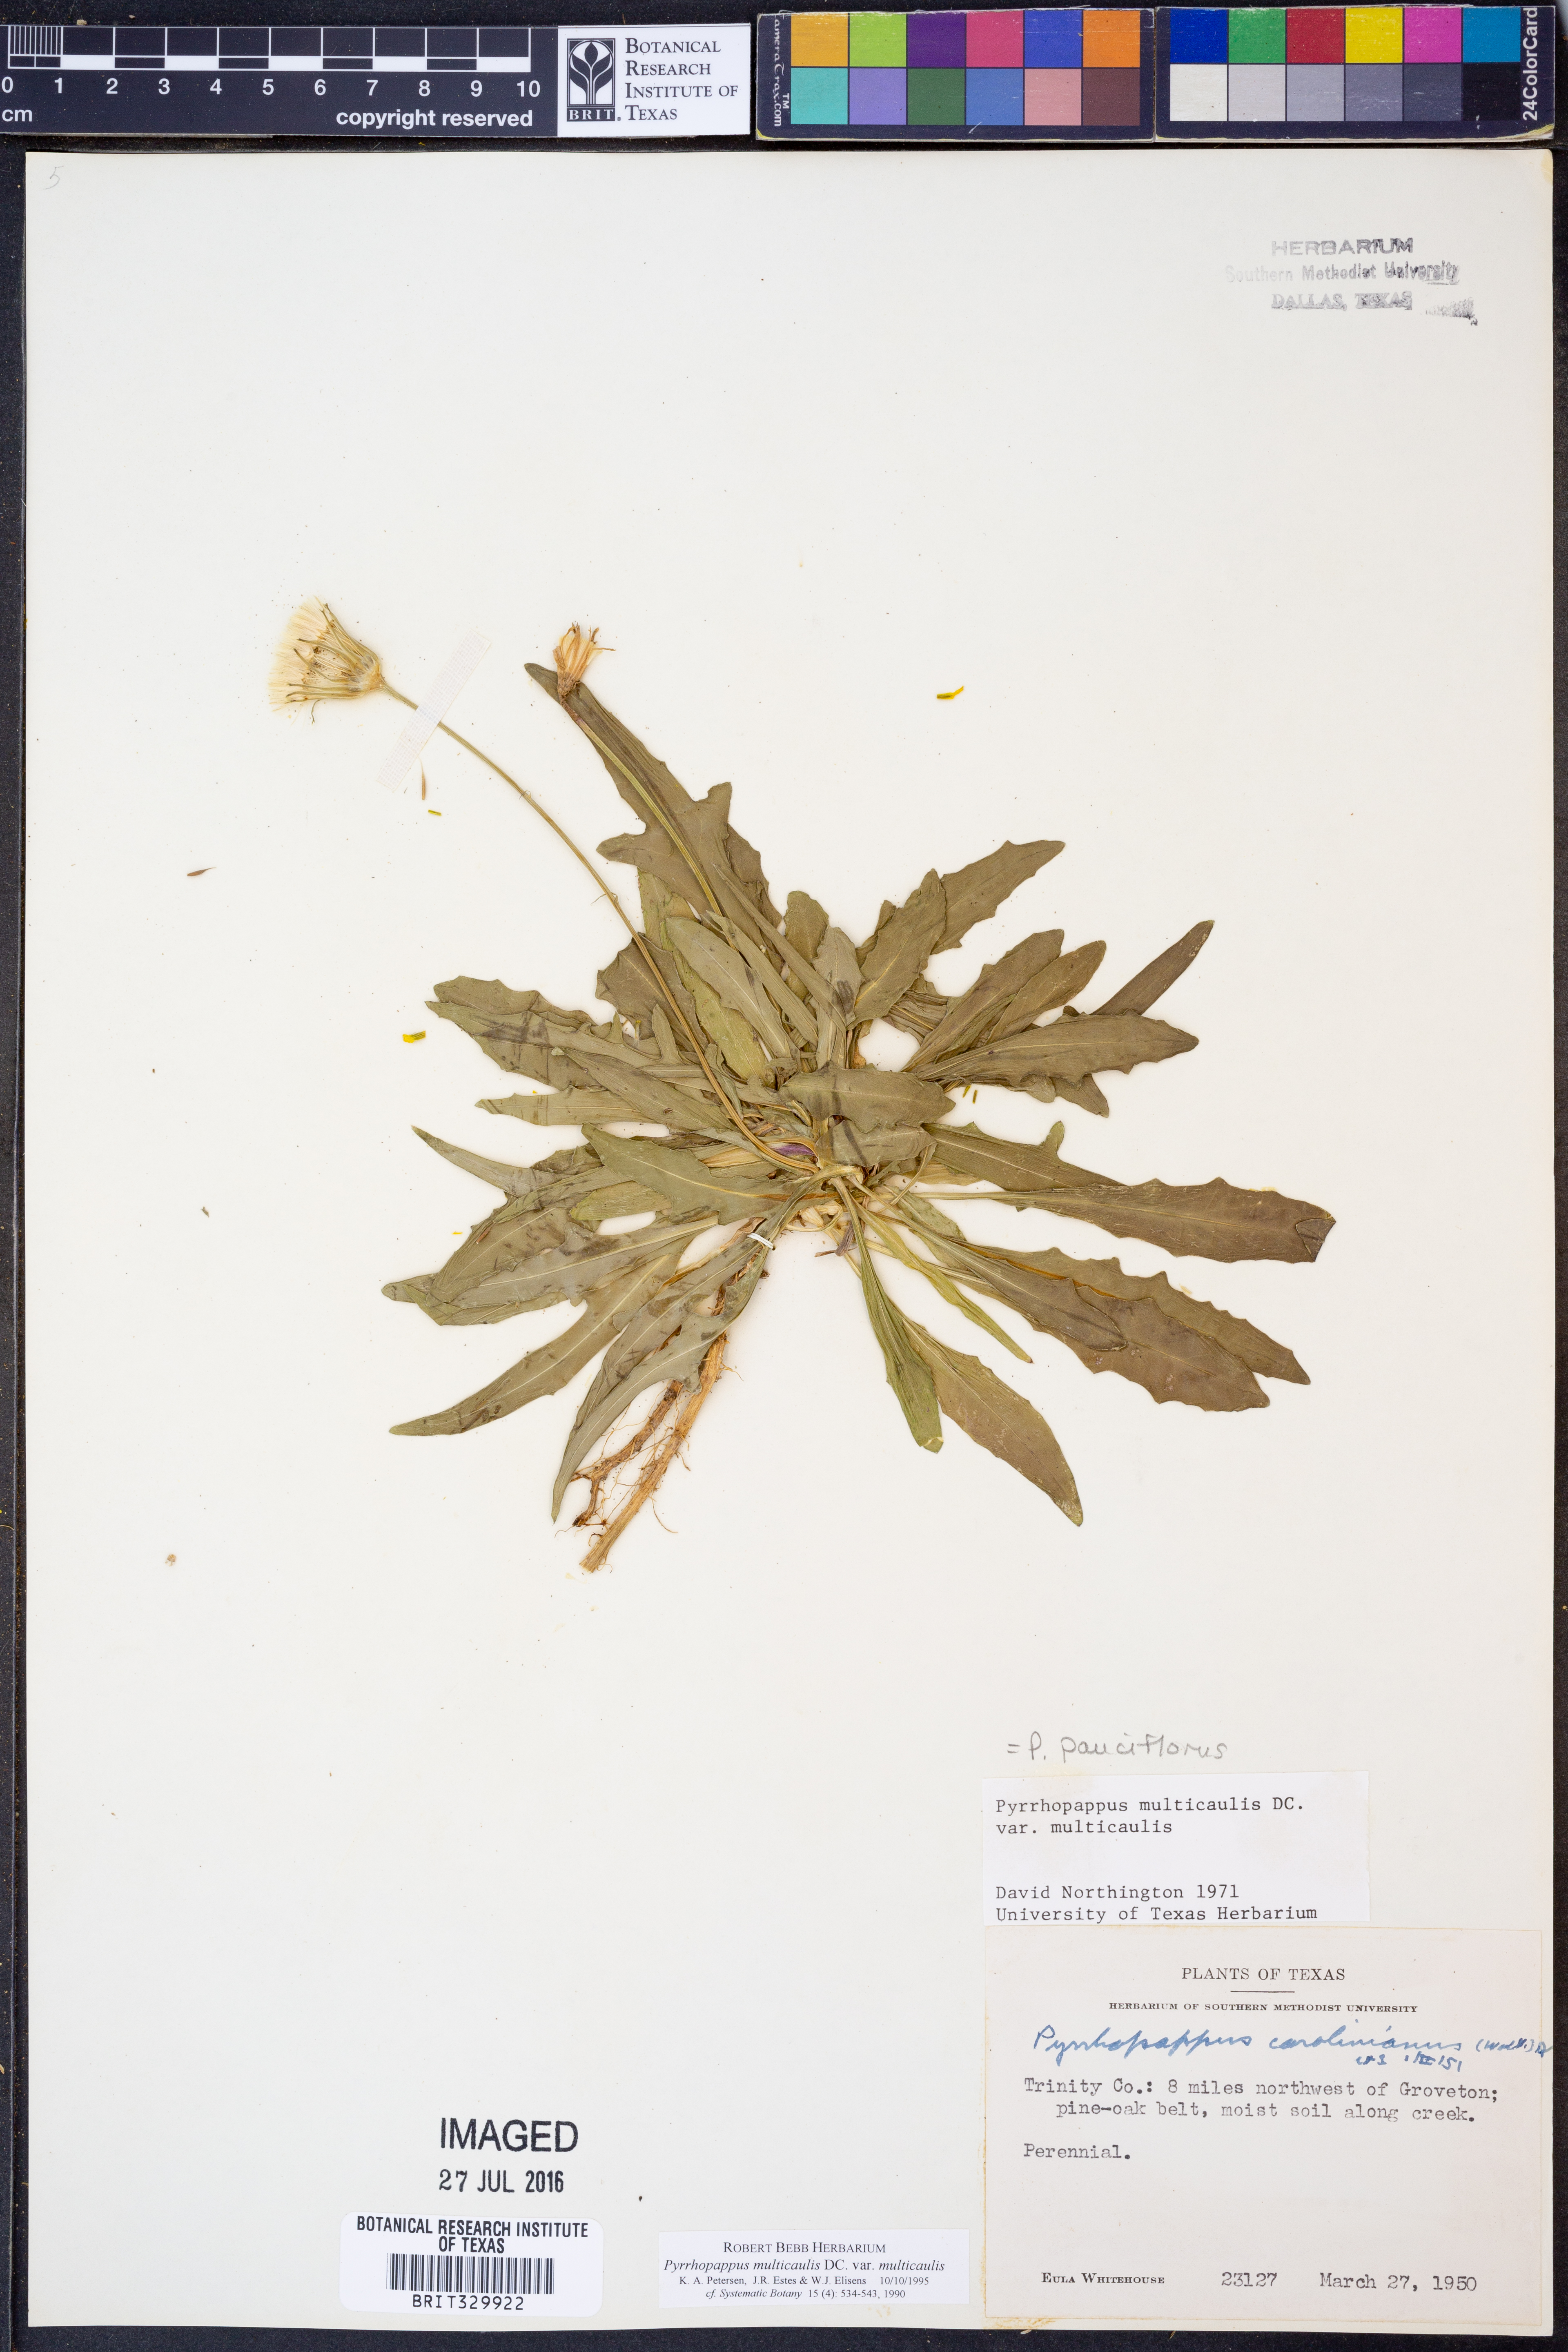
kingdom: Plantae
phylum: Tracheophyta
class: Magnoliopsida
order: Asterales
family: Asteraceae
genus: Pyrrhopappus
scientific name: Pyrrhopappus pauciflorus
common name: Texas false dandelion
